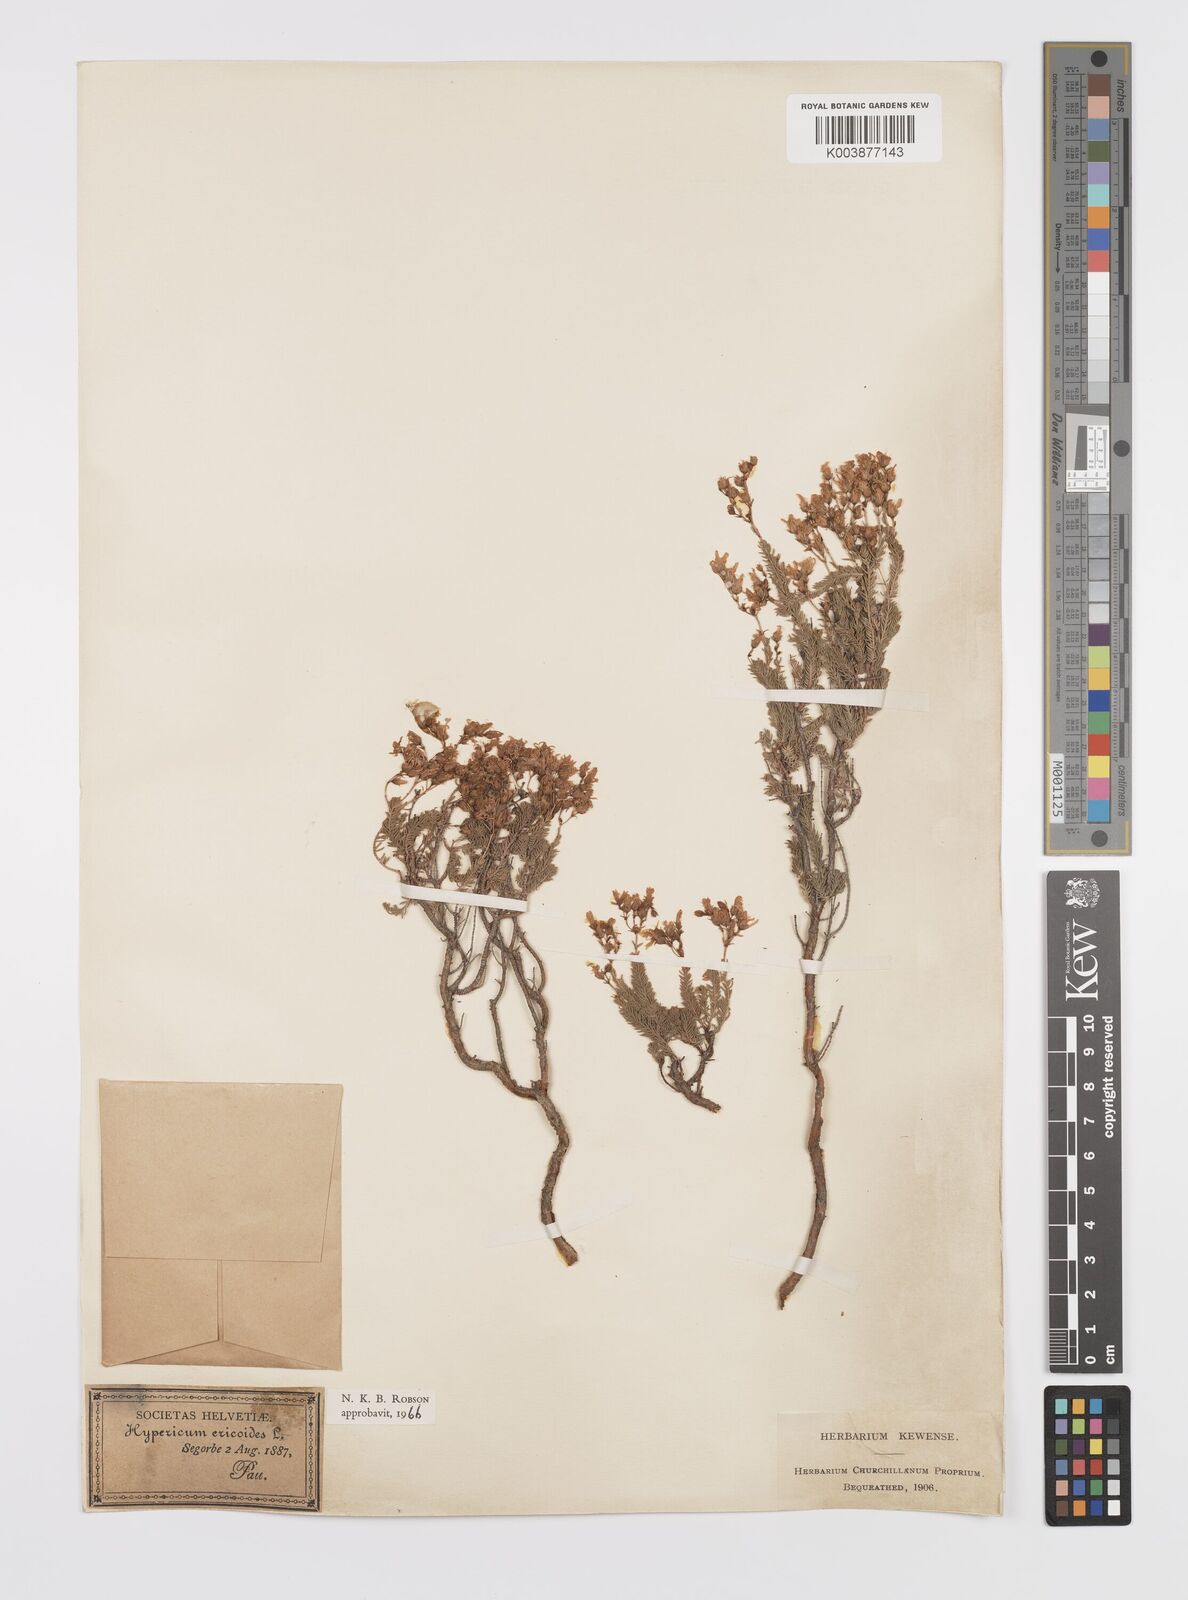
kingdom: Plantae
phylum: Tracheophyta
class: Magnoliopsida
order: Malpighiales
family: Hypericaceae
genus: Hypericum
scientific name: Hypericum ericoides
